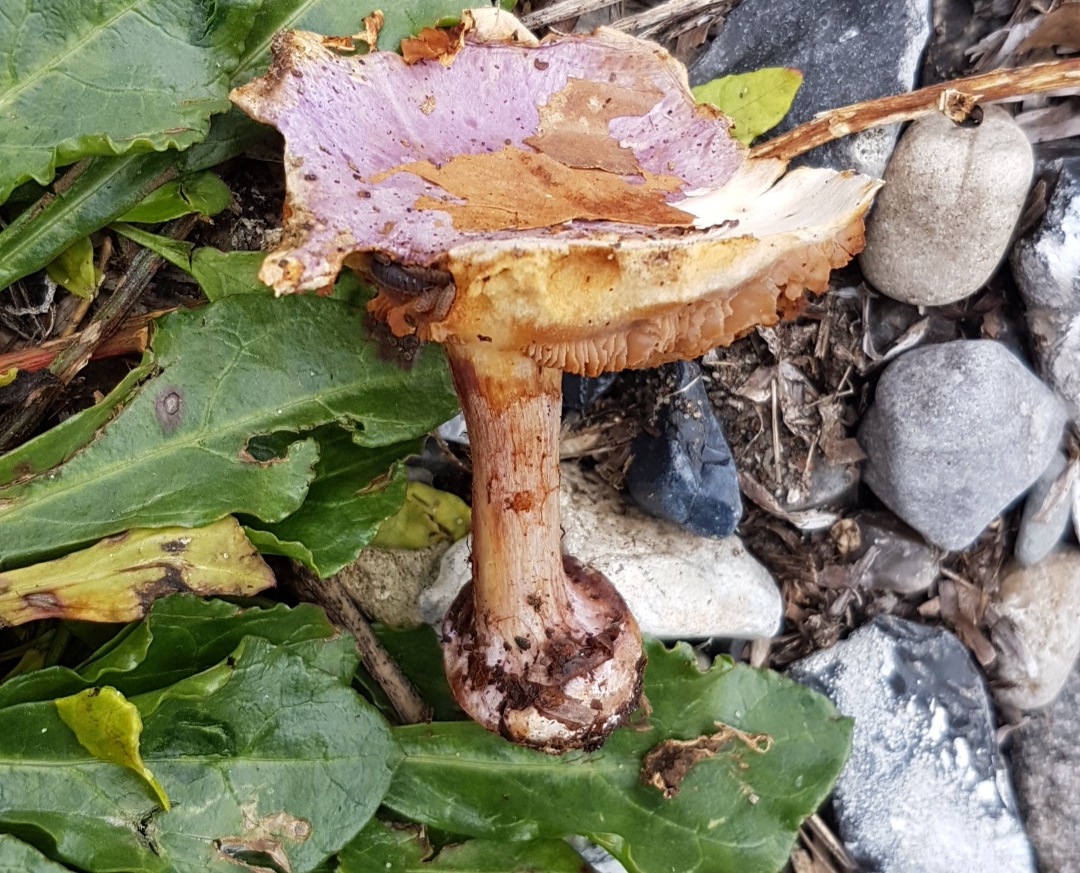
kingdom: Fungi
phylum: Basidiomycota
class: Agaricomycetes
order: Agaricales
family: Cortinariaceae
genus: Calonarius
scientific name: Calonarius sodagnitus
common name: violblå slørhat
